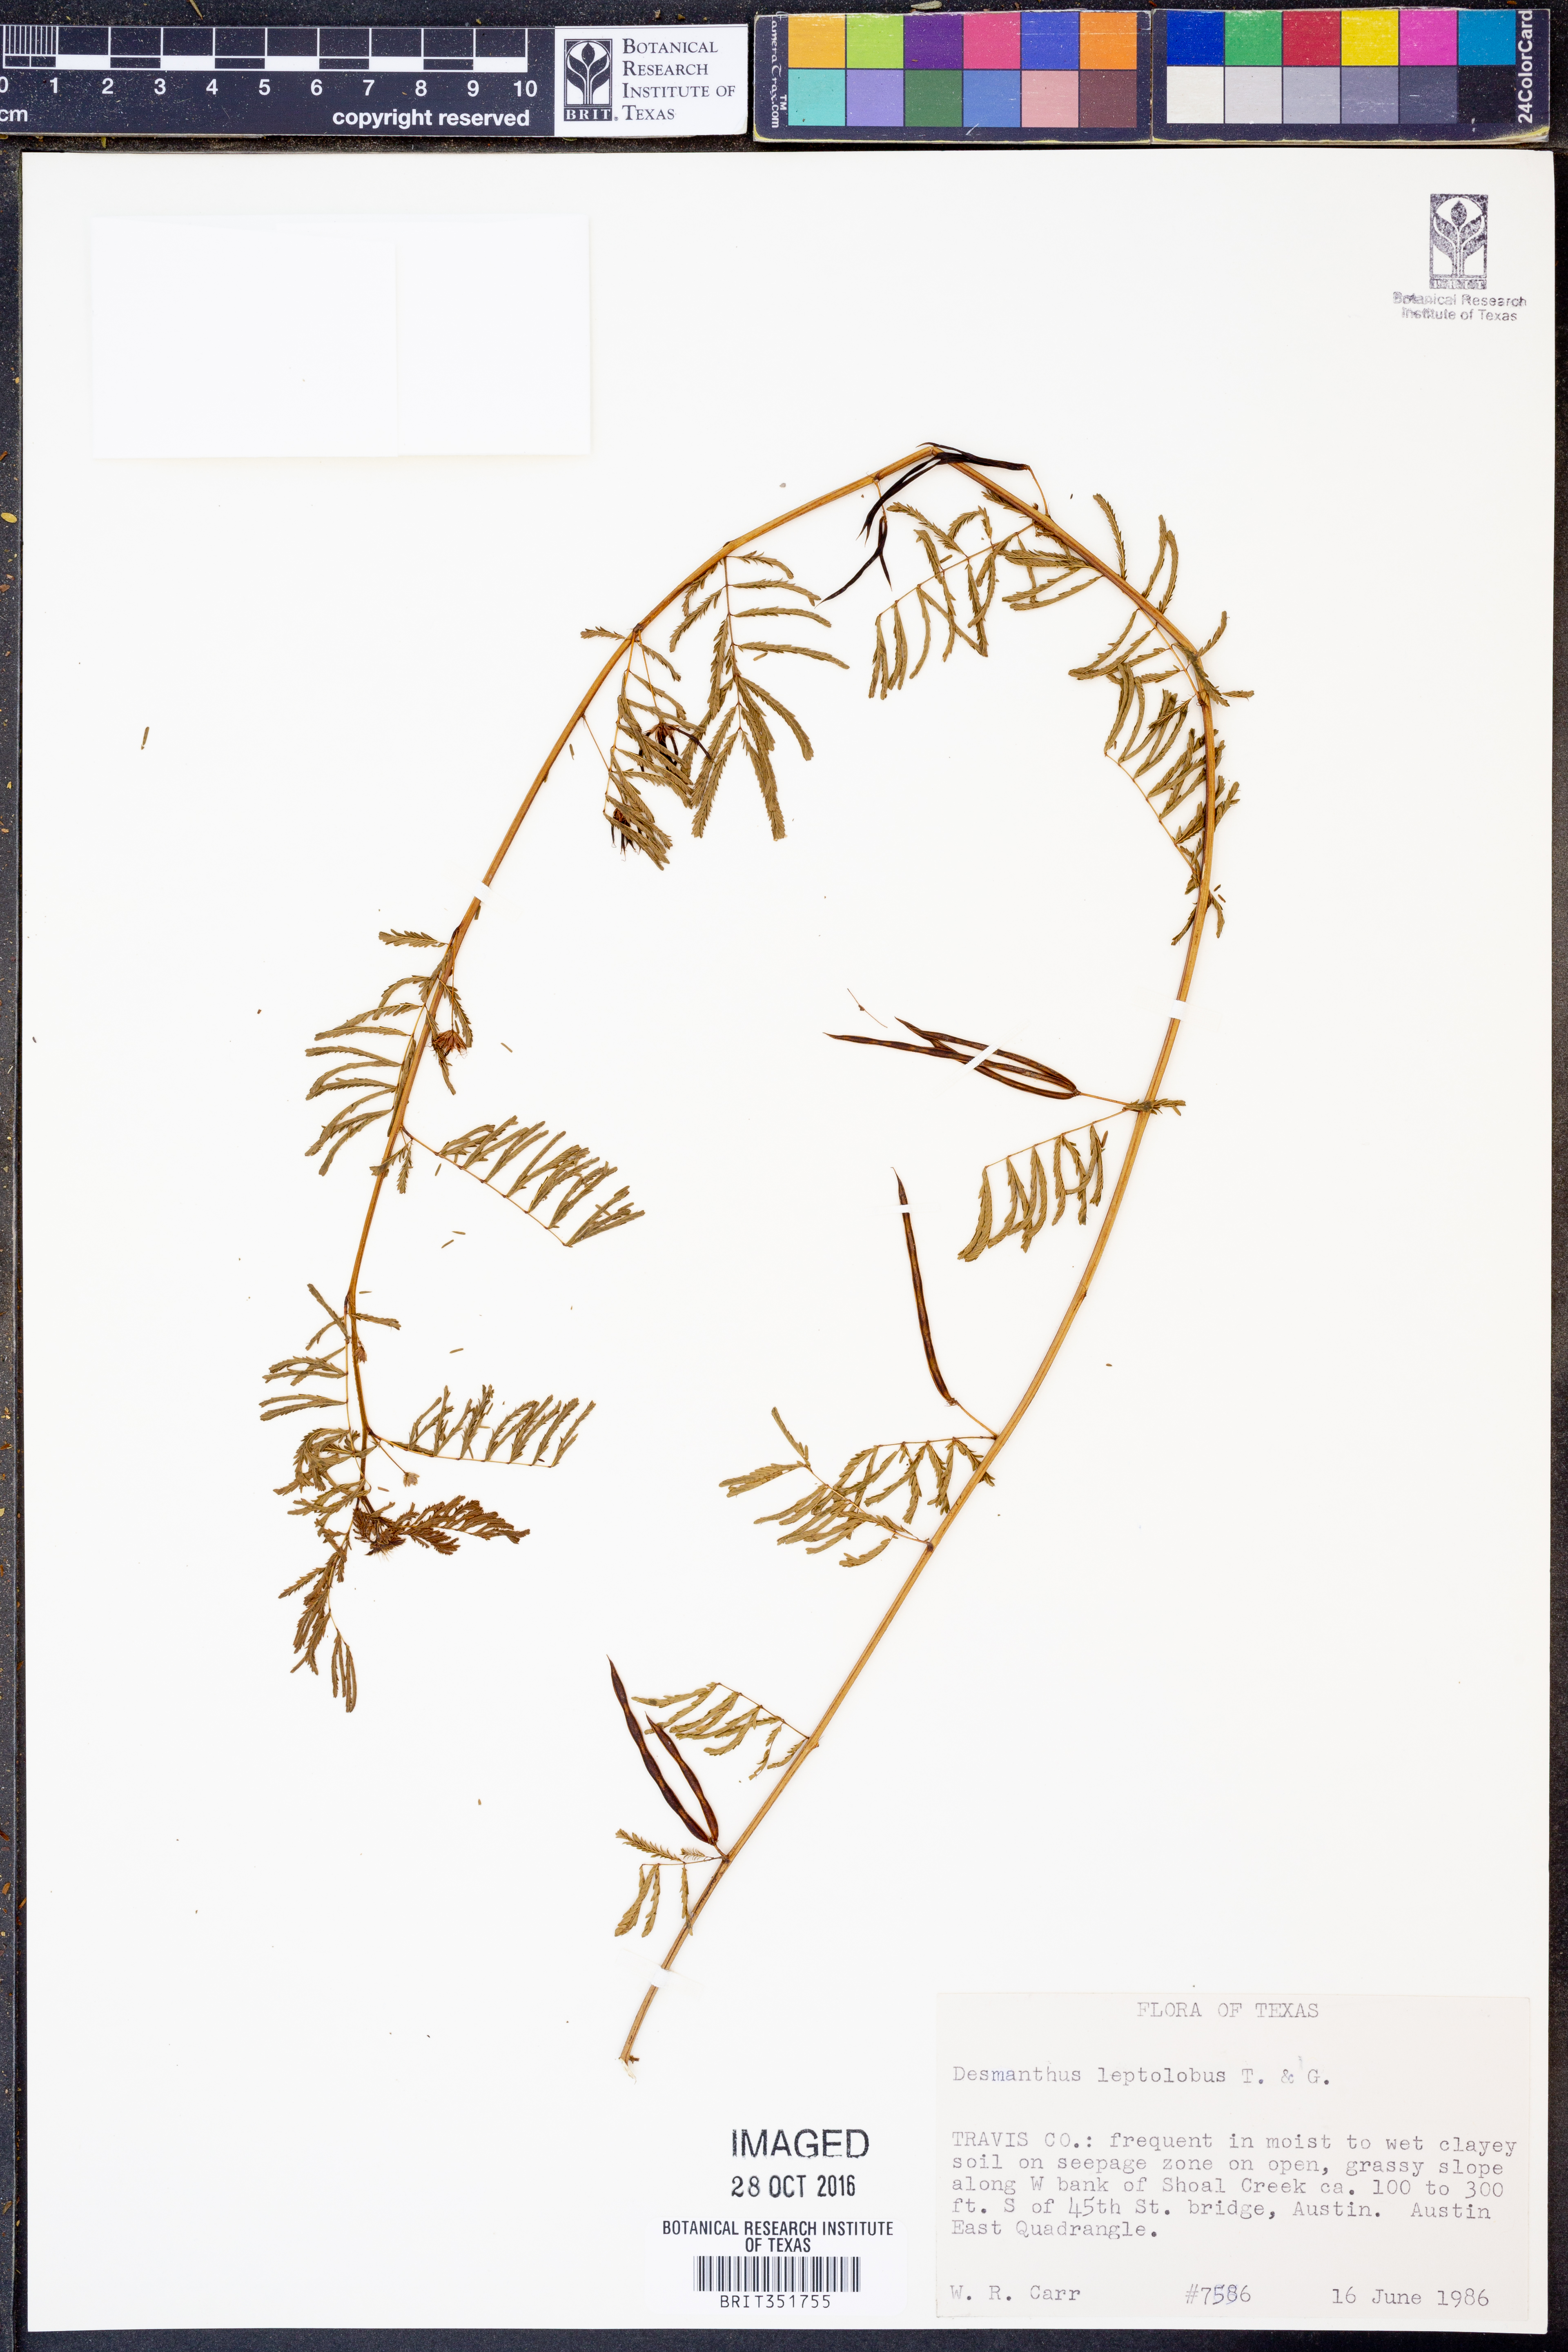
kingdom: Plantae
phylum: Tracheophyta
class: Magnoliopsida
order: Fabales
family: Fabaceae
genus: Desmanthus
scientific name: Desmanthus leptolobus
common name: Prairie-mimosa
